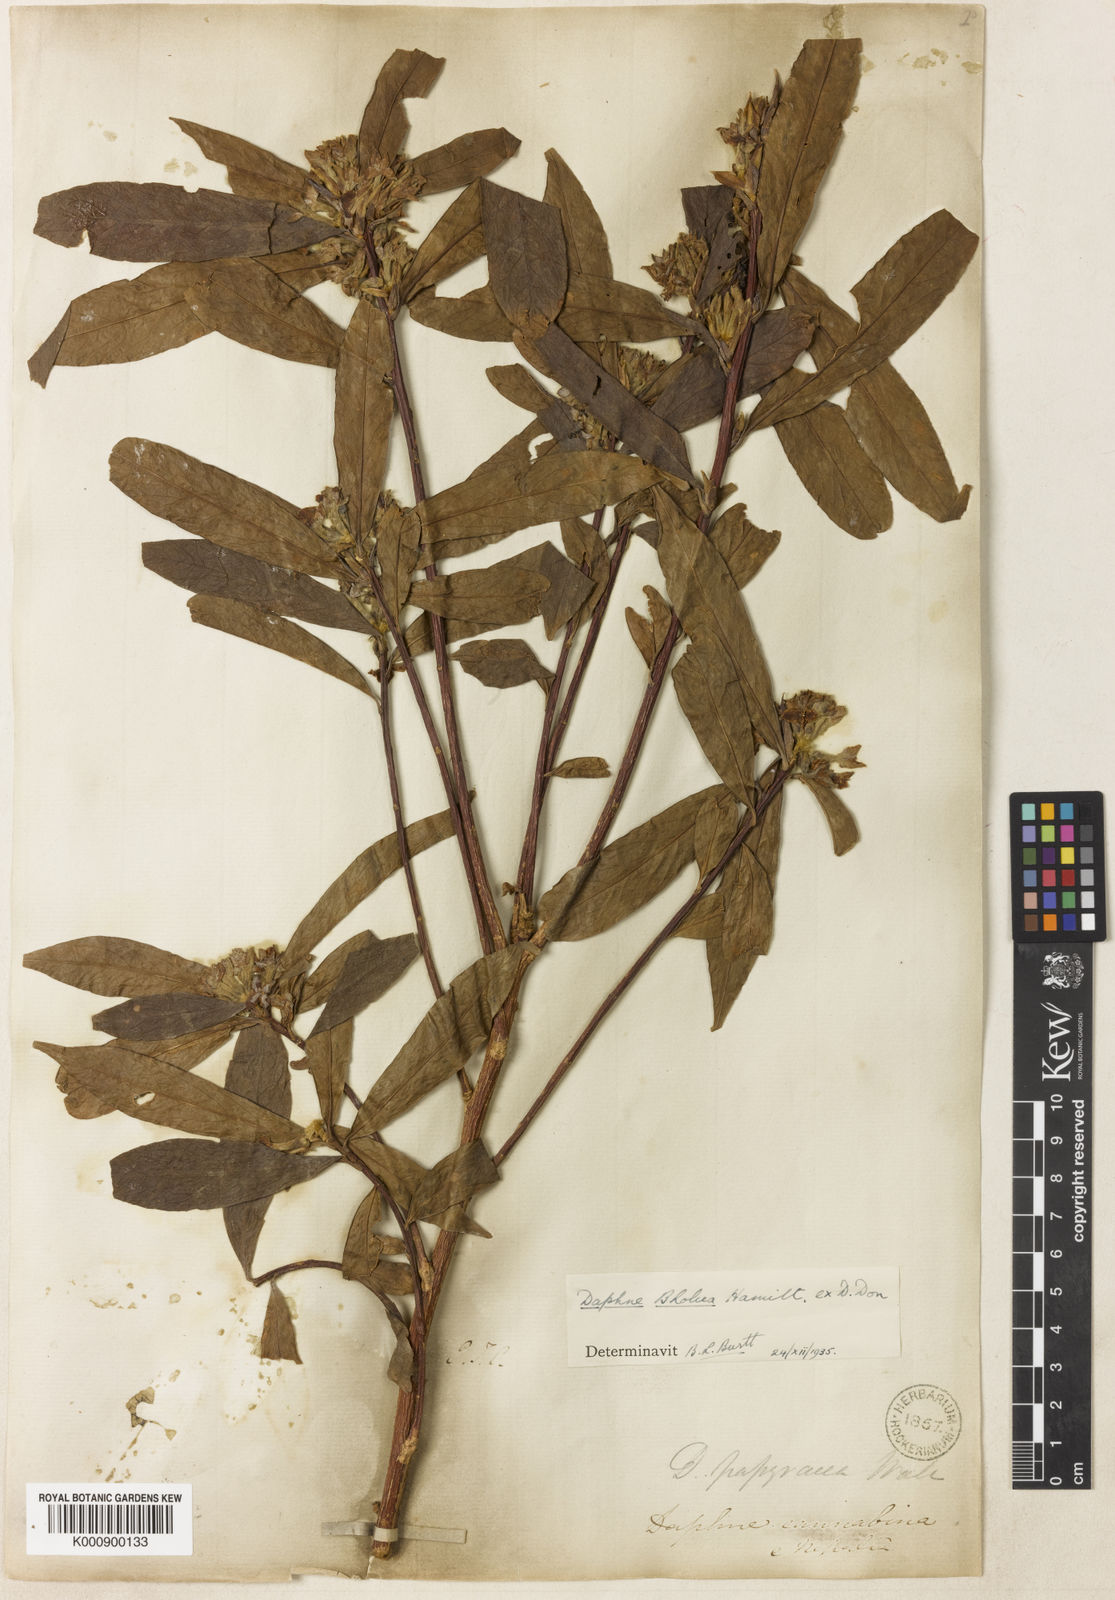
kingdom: Plantae
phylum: Tracheophyta
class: Magnoliopsida
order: Malvales
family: Thymelaeaceae
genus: Daphne
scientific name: Daphne bholua
